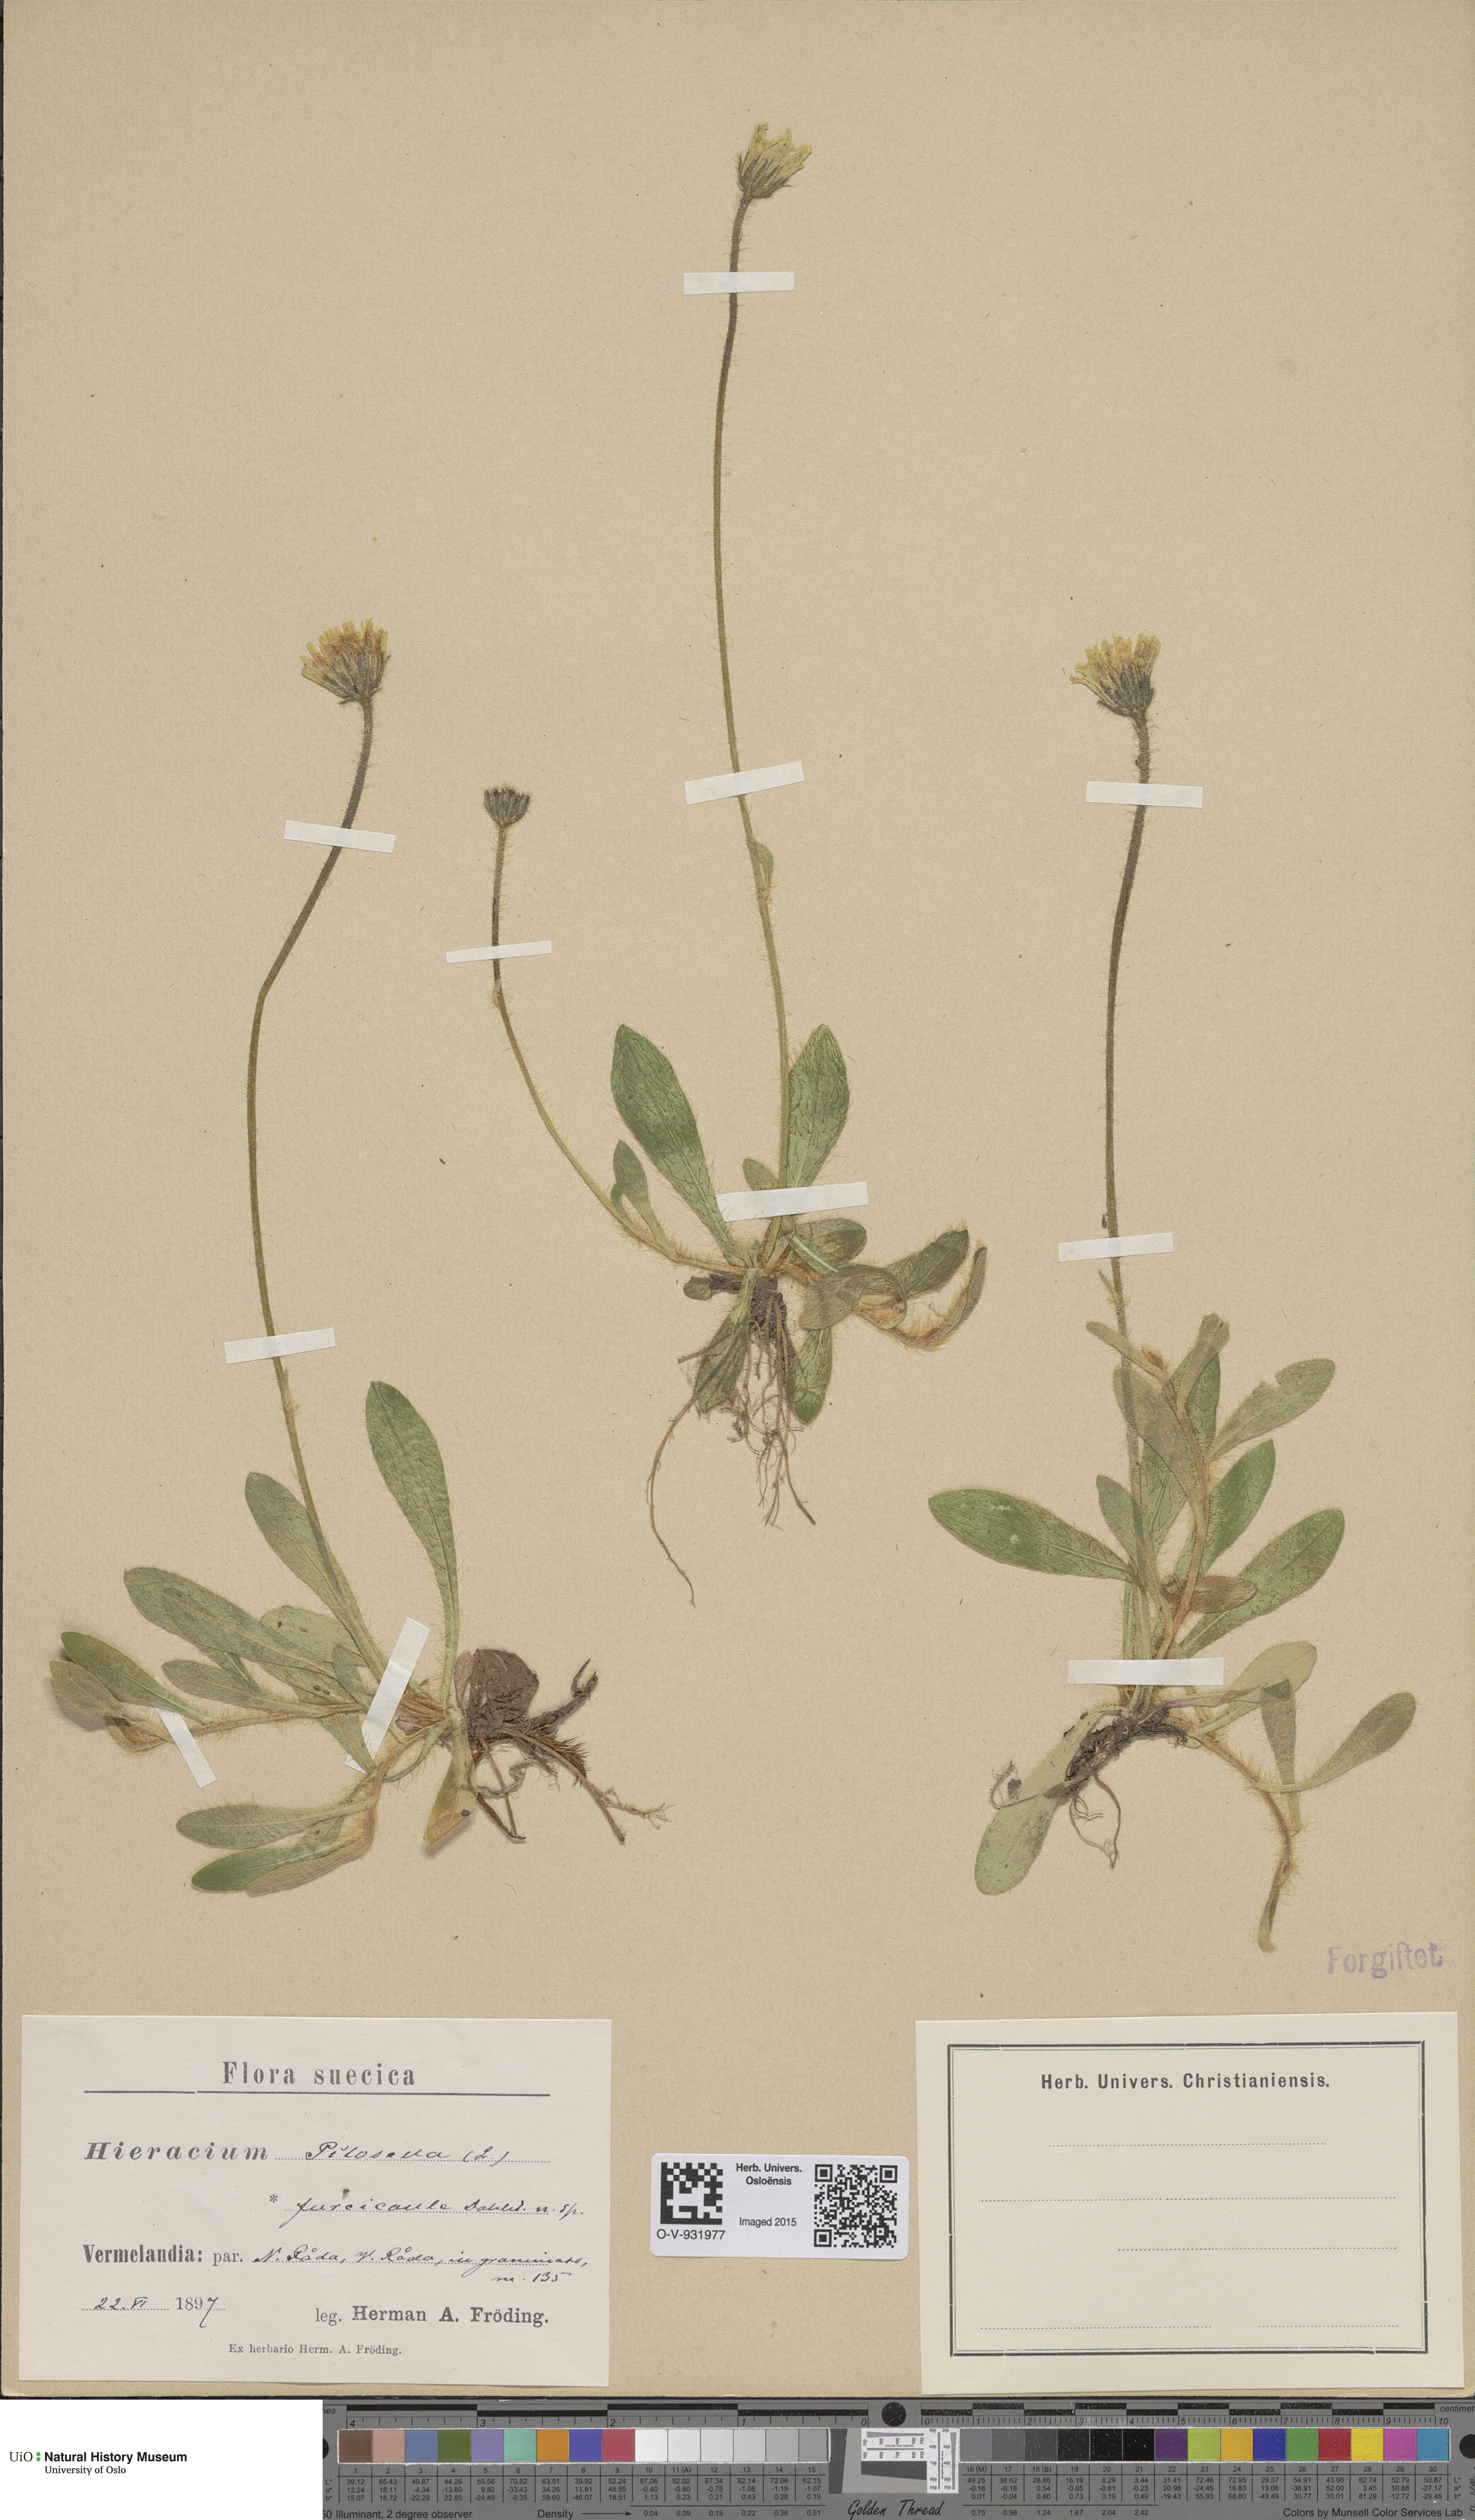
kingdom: Plantae
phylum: Tracheophyta
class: Magnoliopsida
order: Asterales
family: Asteraceae
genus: Pilosella
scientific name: Pilosella officinarum
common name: Mouse-ear hawkweed
